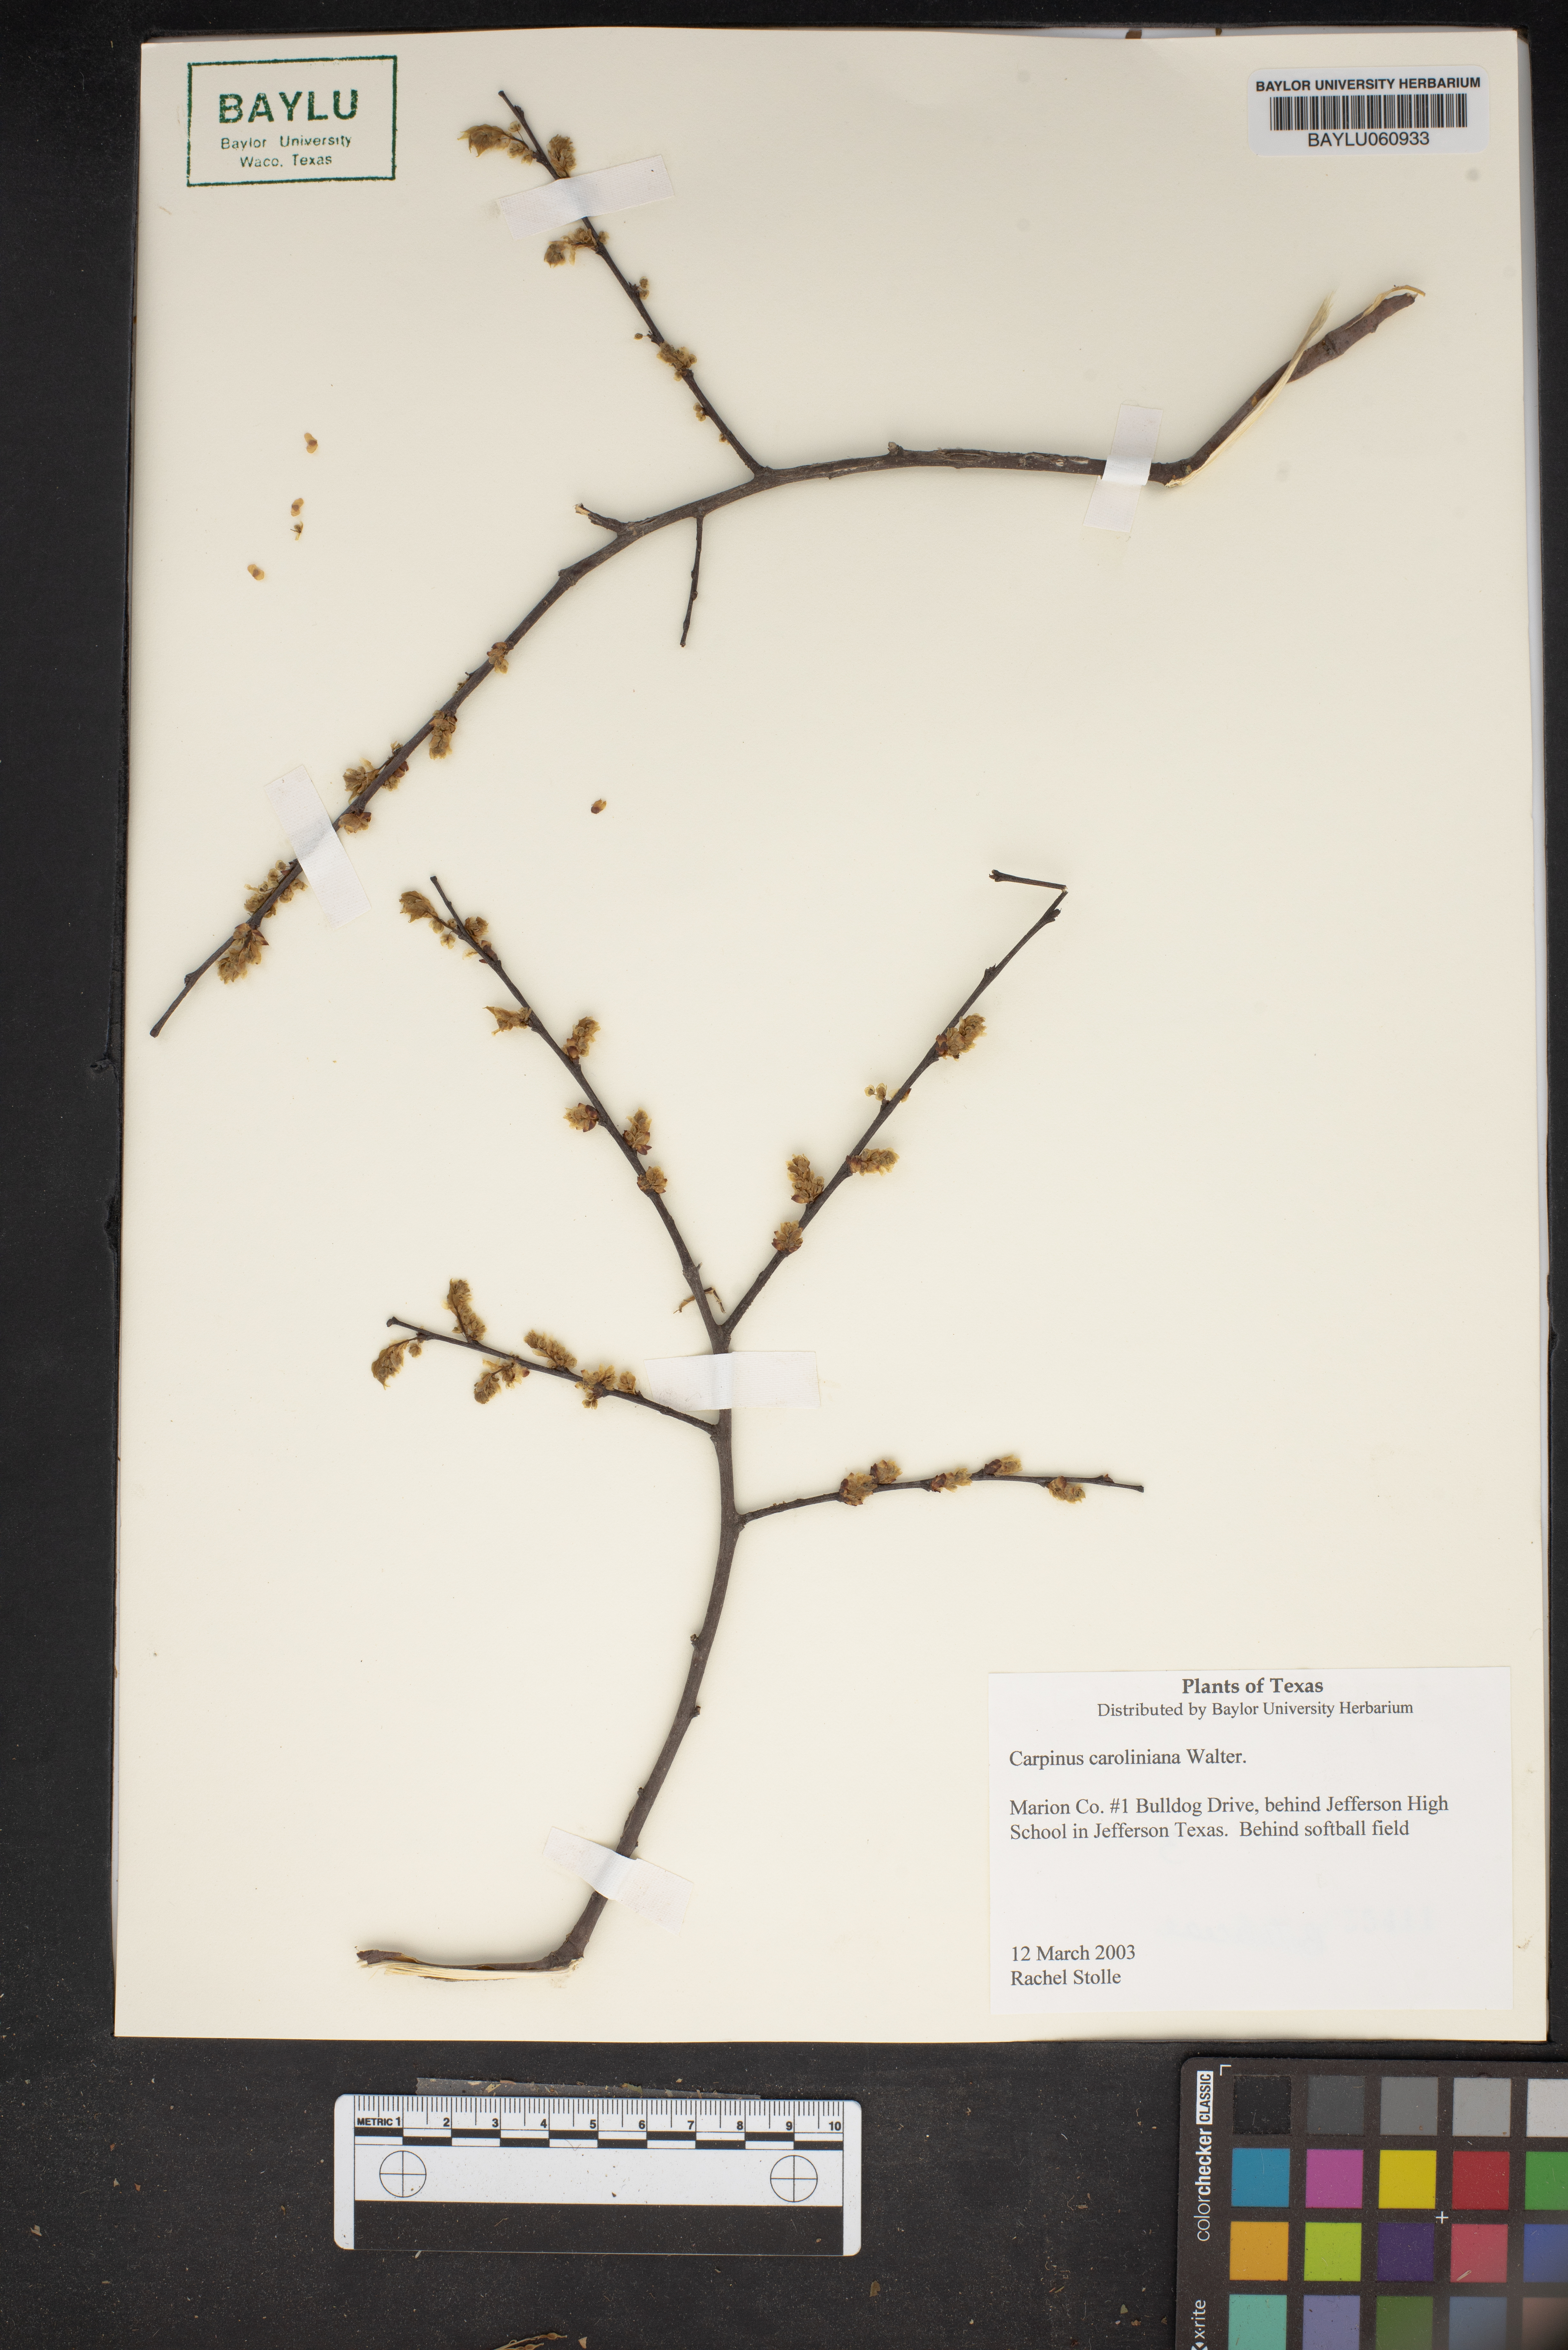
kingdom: Plantae
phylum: Tracheophyta
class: Magnoliopsida
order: Fagales
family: Betulaceae
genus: Carpinus
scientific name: Carpinus caroliniana
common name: American hornbeam
